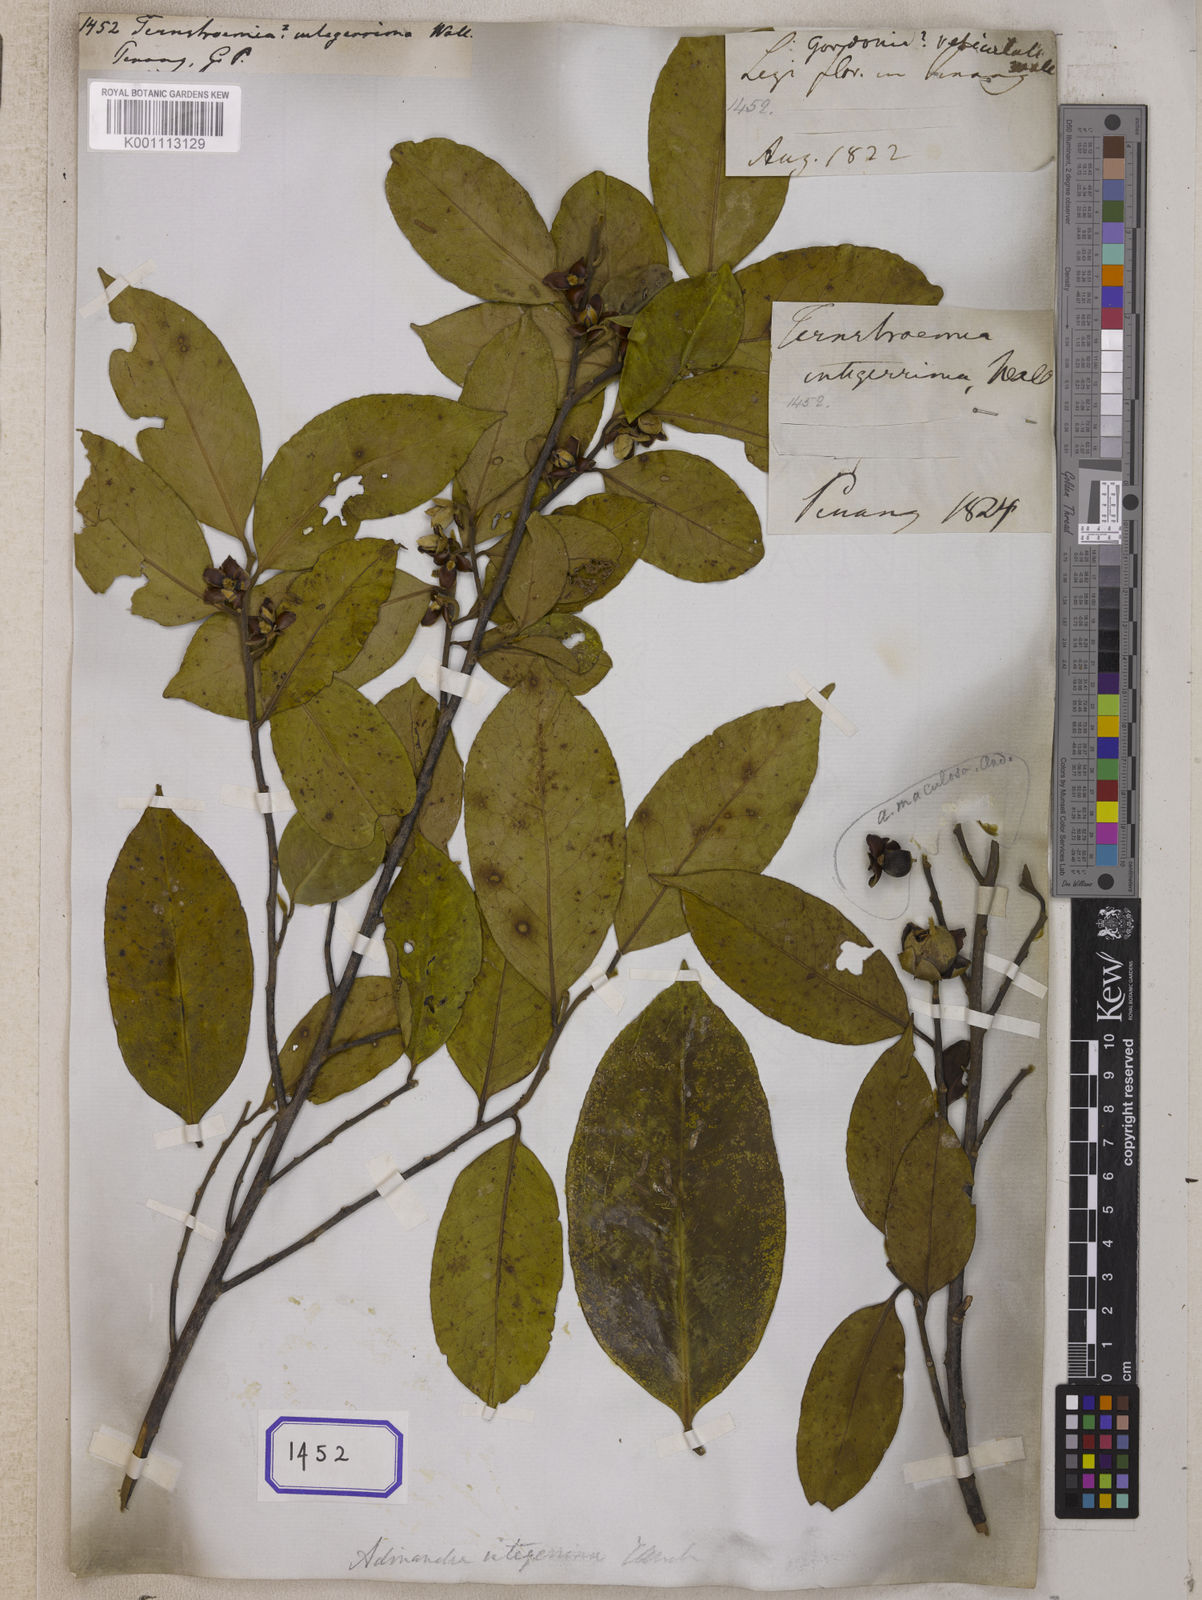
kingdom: Plantae
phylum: Tracheophyta
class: Magnoliopsida
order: Ericales
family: Pentaphylacaceae
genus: Adinandra
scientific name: Adinandra integerrima
